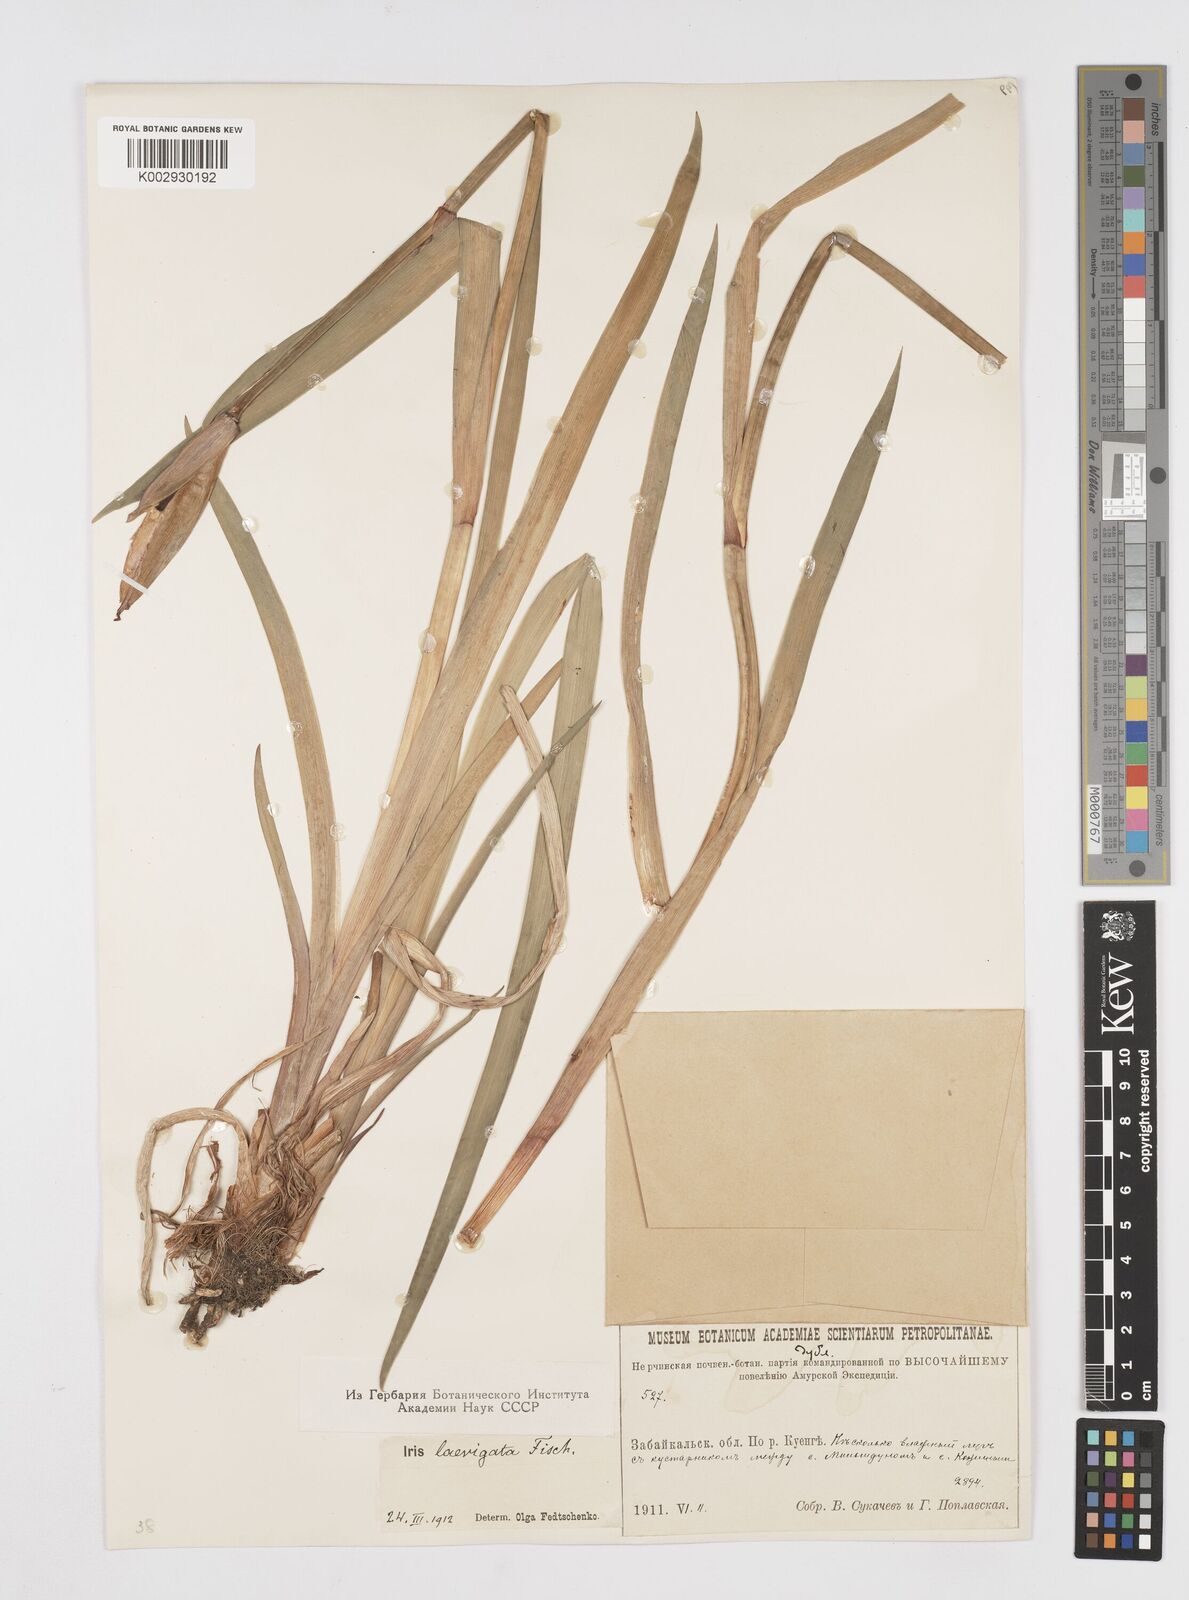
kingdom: Plantae
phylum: Tracheophyta
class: Liliopsida
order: Asparagales
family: Iridaceae
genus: Iris
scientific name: Iris laevigata
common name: Japanese iris
